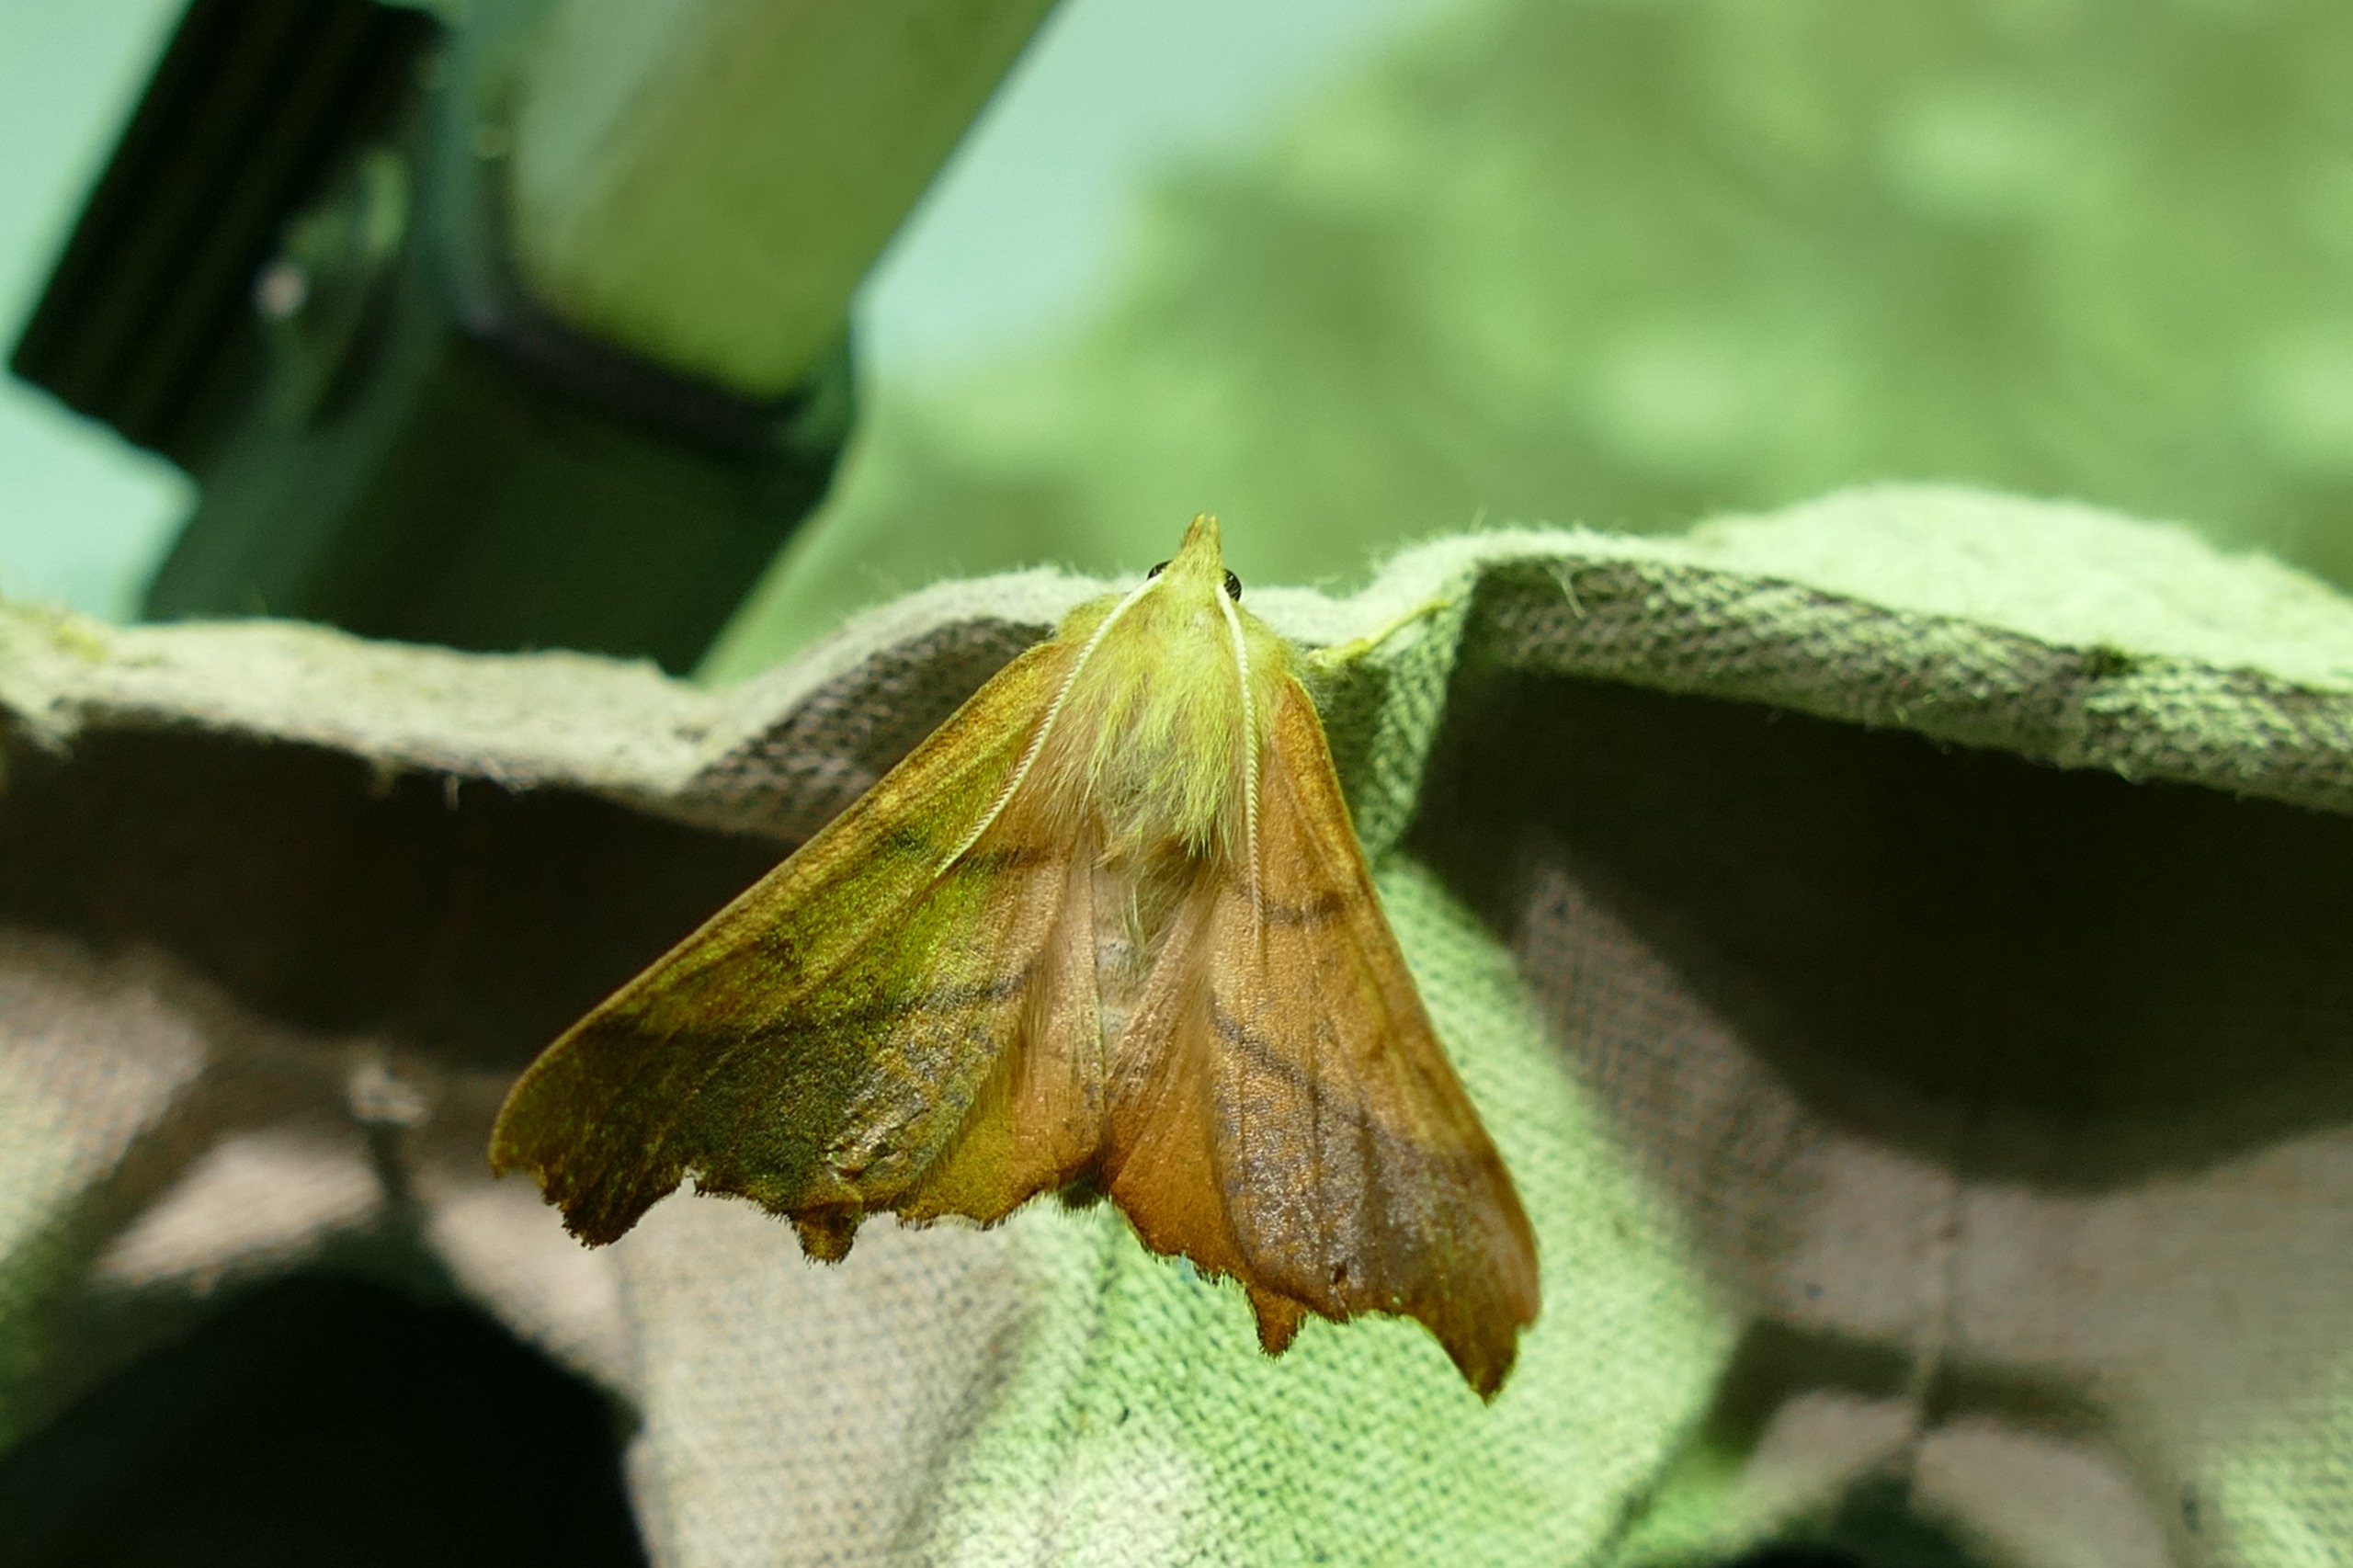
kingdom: Animalia
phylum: Arthropoda
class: Insecta
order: Lepidoptera
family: Geometridae
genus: Ennomos
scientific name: Ennomos fuscantaria
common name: Asketandmåler
